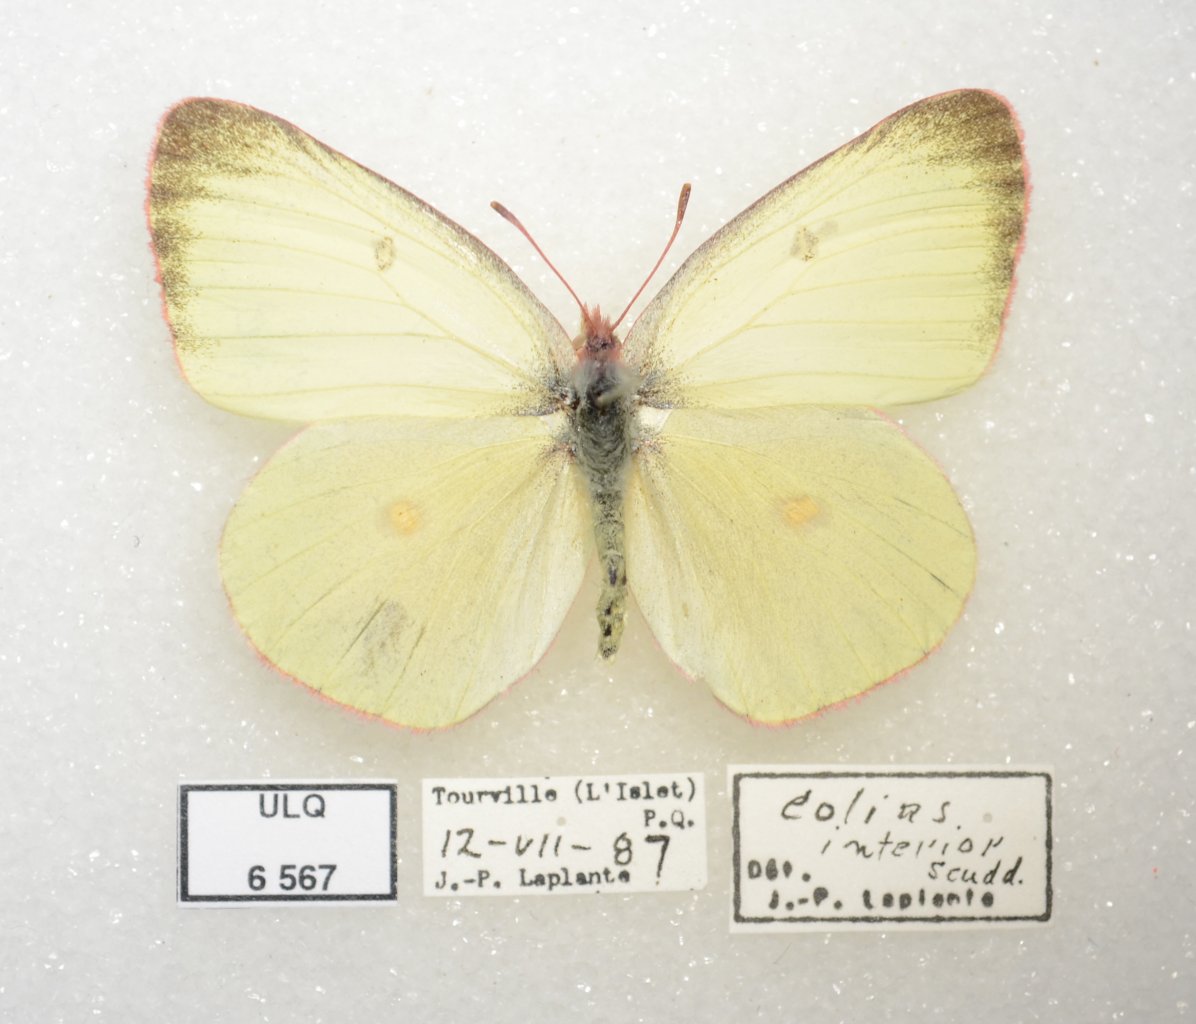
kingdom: Animalia
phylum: Arthropoda
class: Insecta
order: Lepidoptera
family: Pieridae
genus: Colias
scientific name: Colias interior
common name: Pink-edged Sulphur
